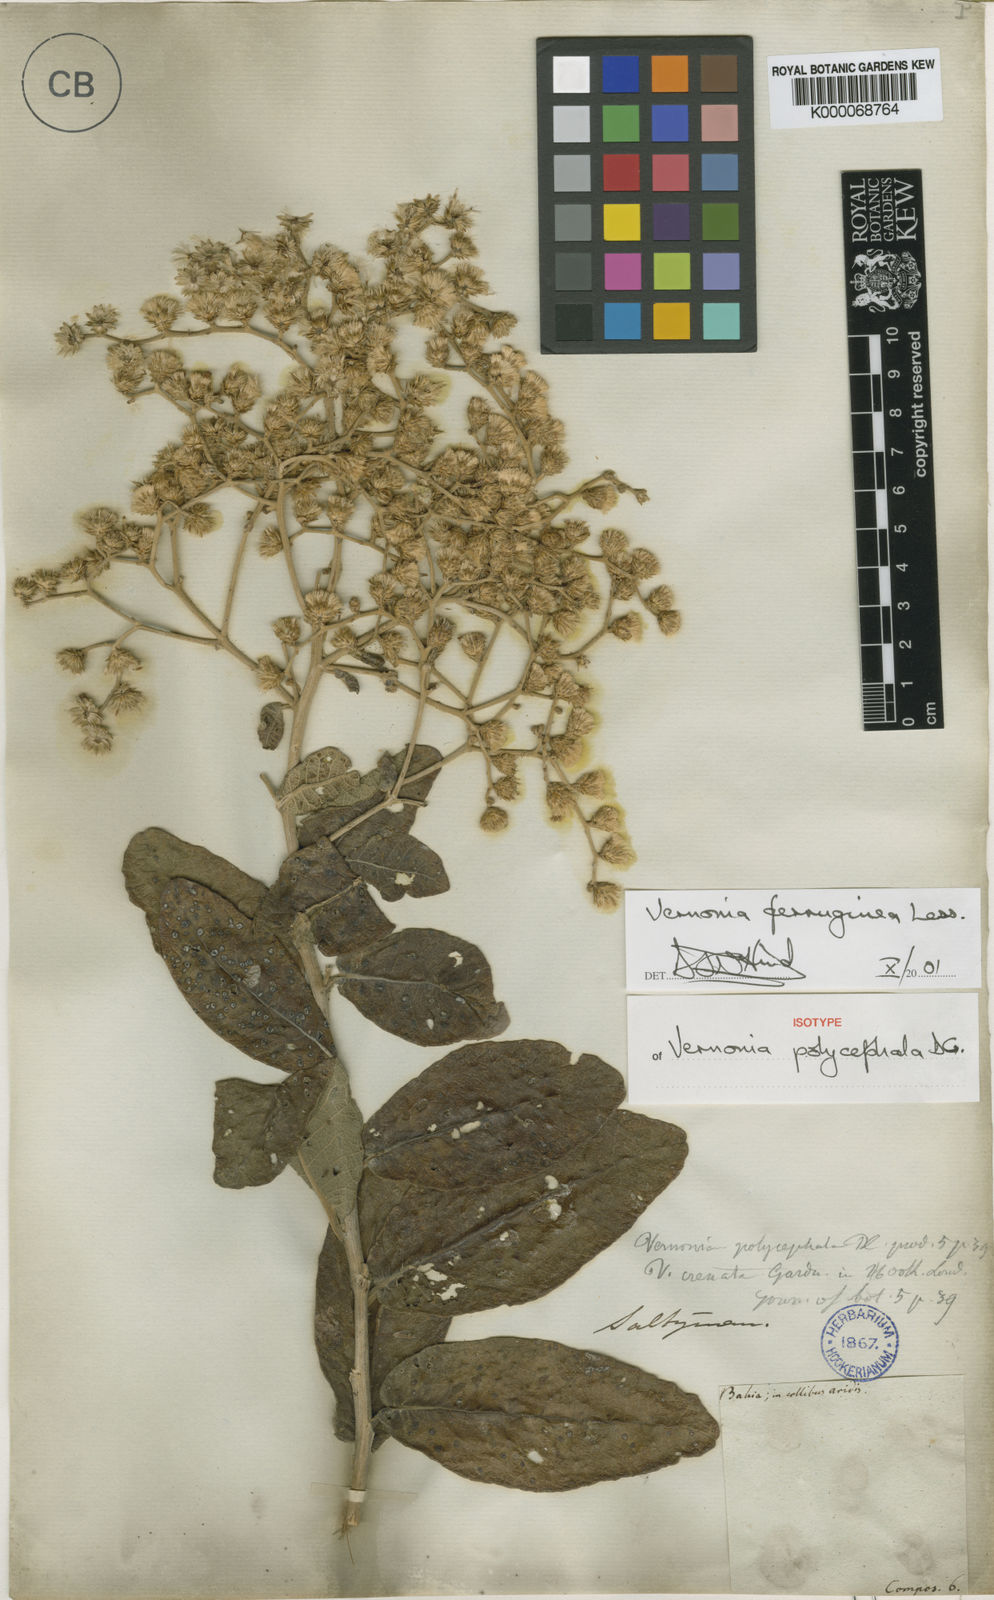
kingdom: Plantae
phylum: Tracheophyta
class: Magnoliopsida
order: Asterales
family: Asteraceae
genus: Vernonanthura
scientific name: Vernonanthura ferruginea
